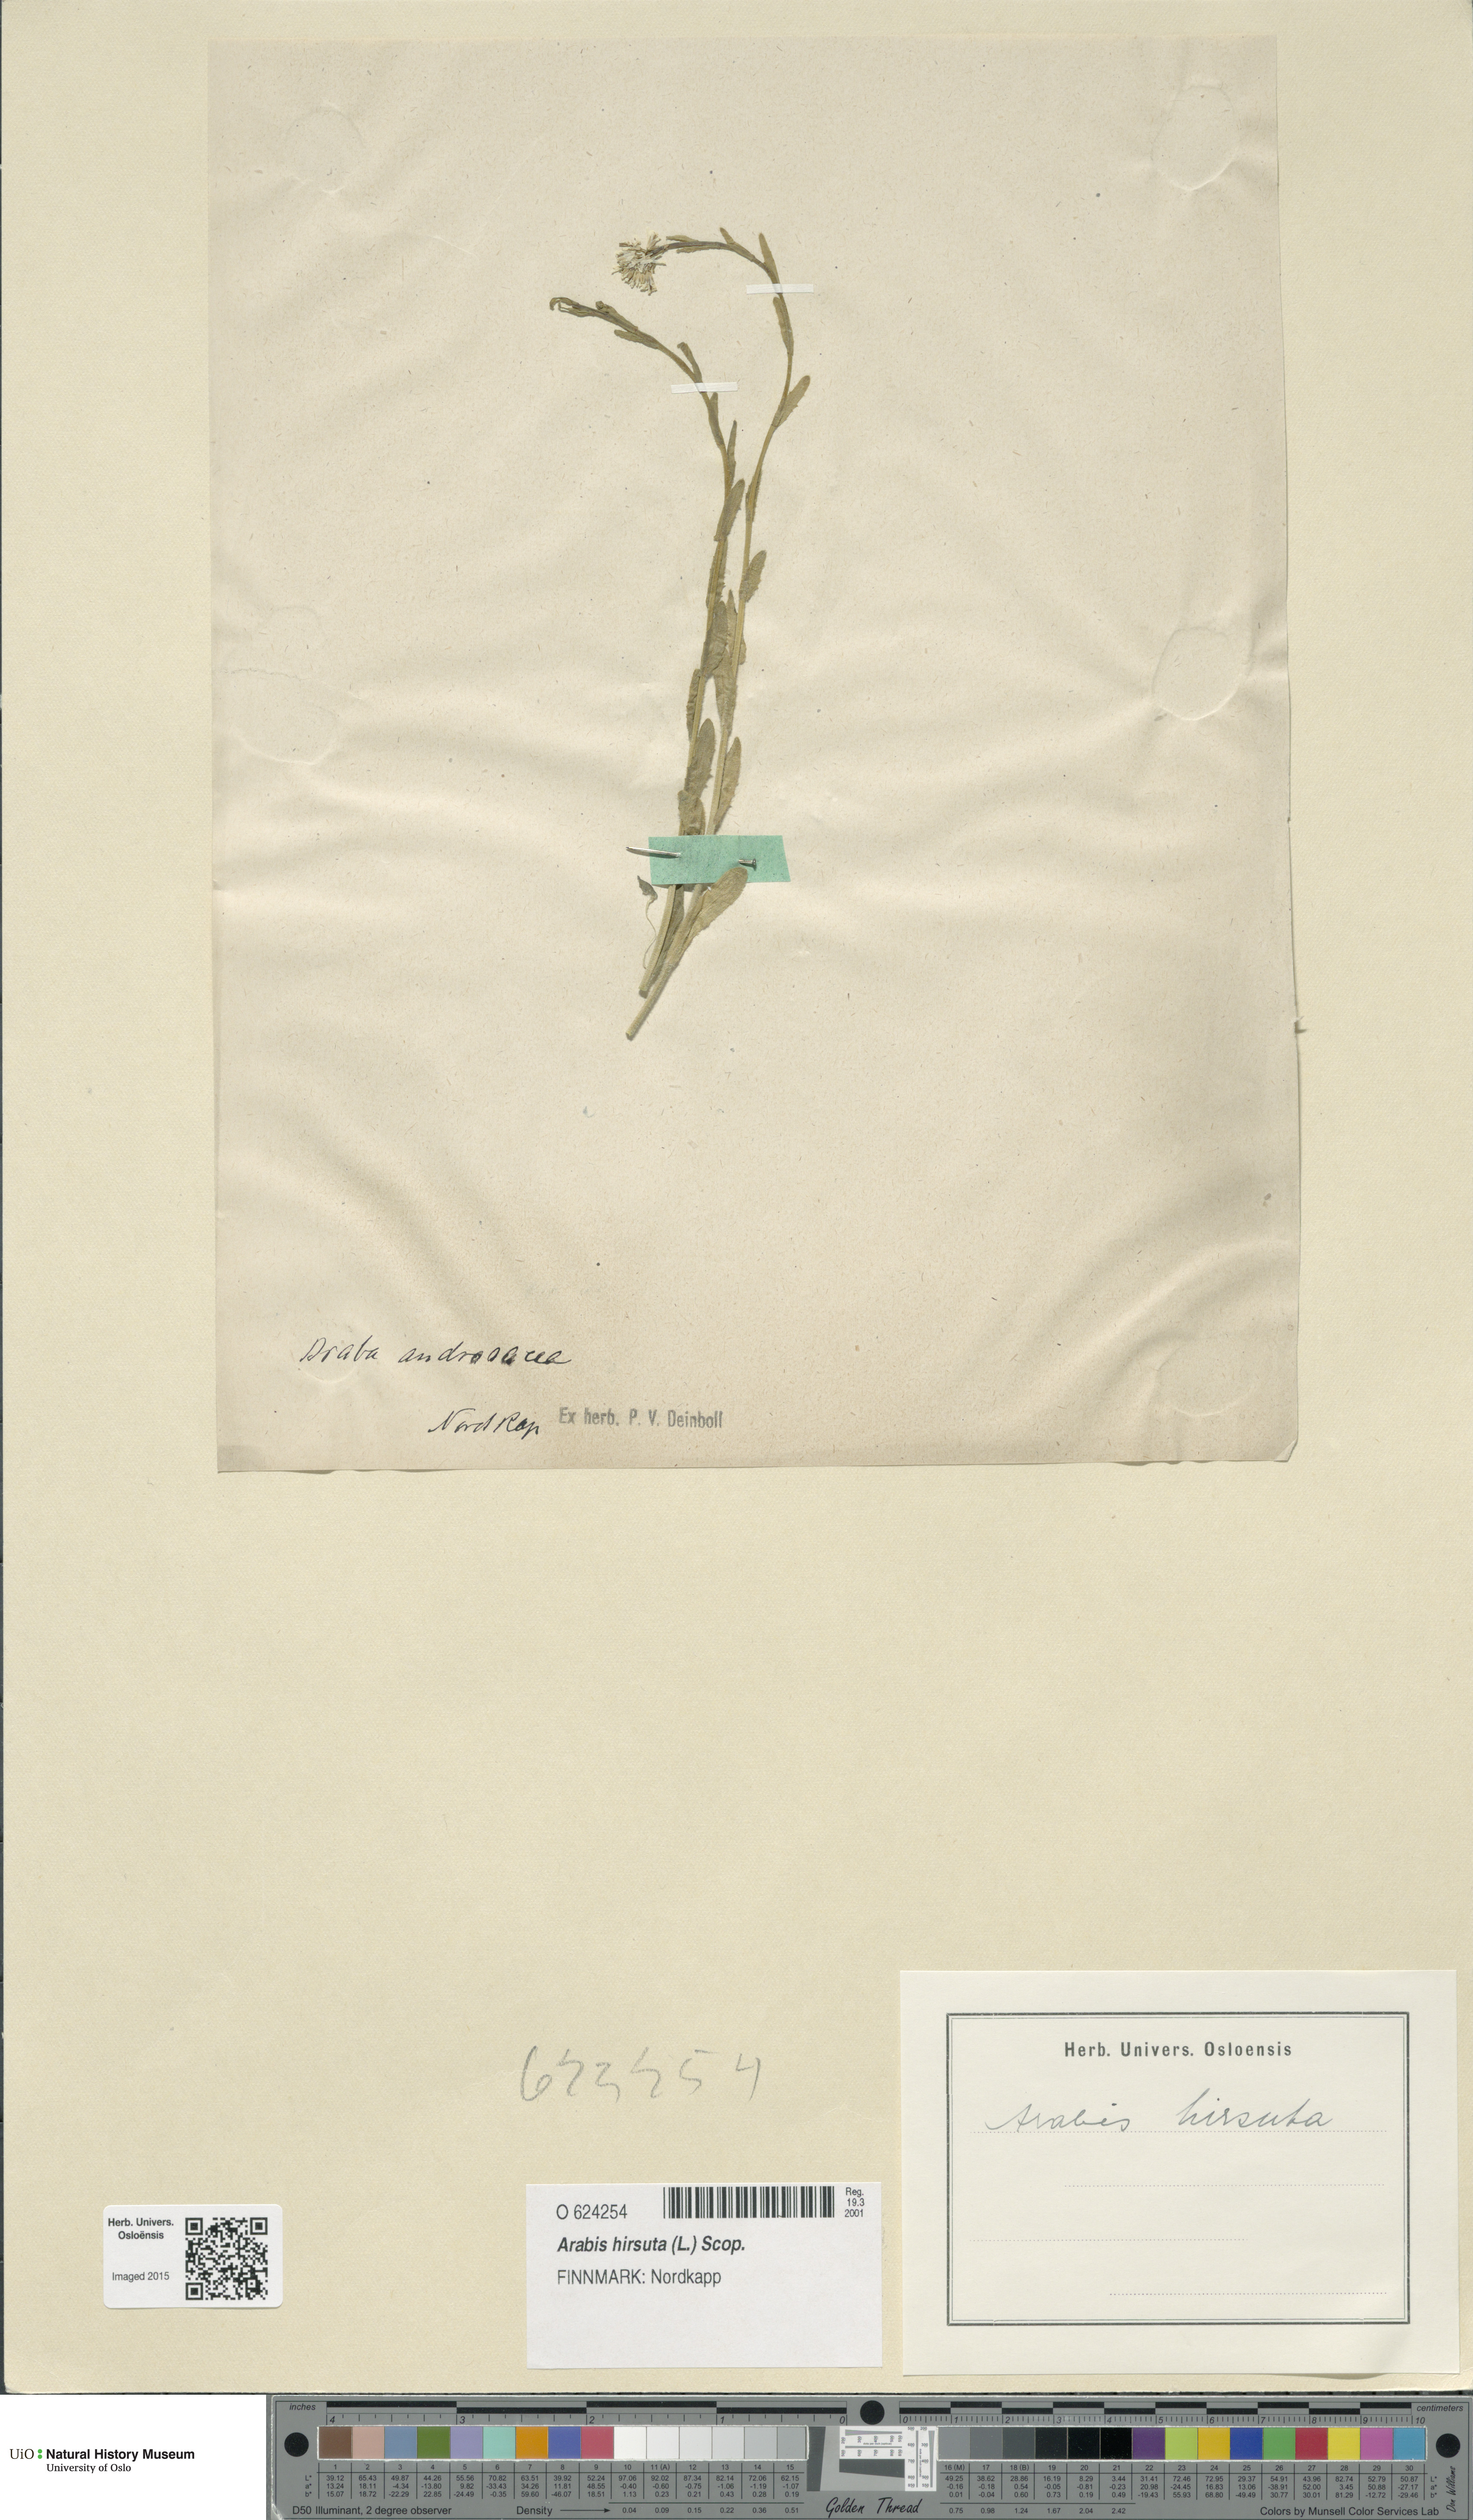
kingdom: Plantae
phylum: Tracheophyta
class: Magnoliopsida
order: Brassicales
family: Brassicaceae
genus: Arabis
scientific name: Arabis hirsuta
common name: Hairy rock-cress
